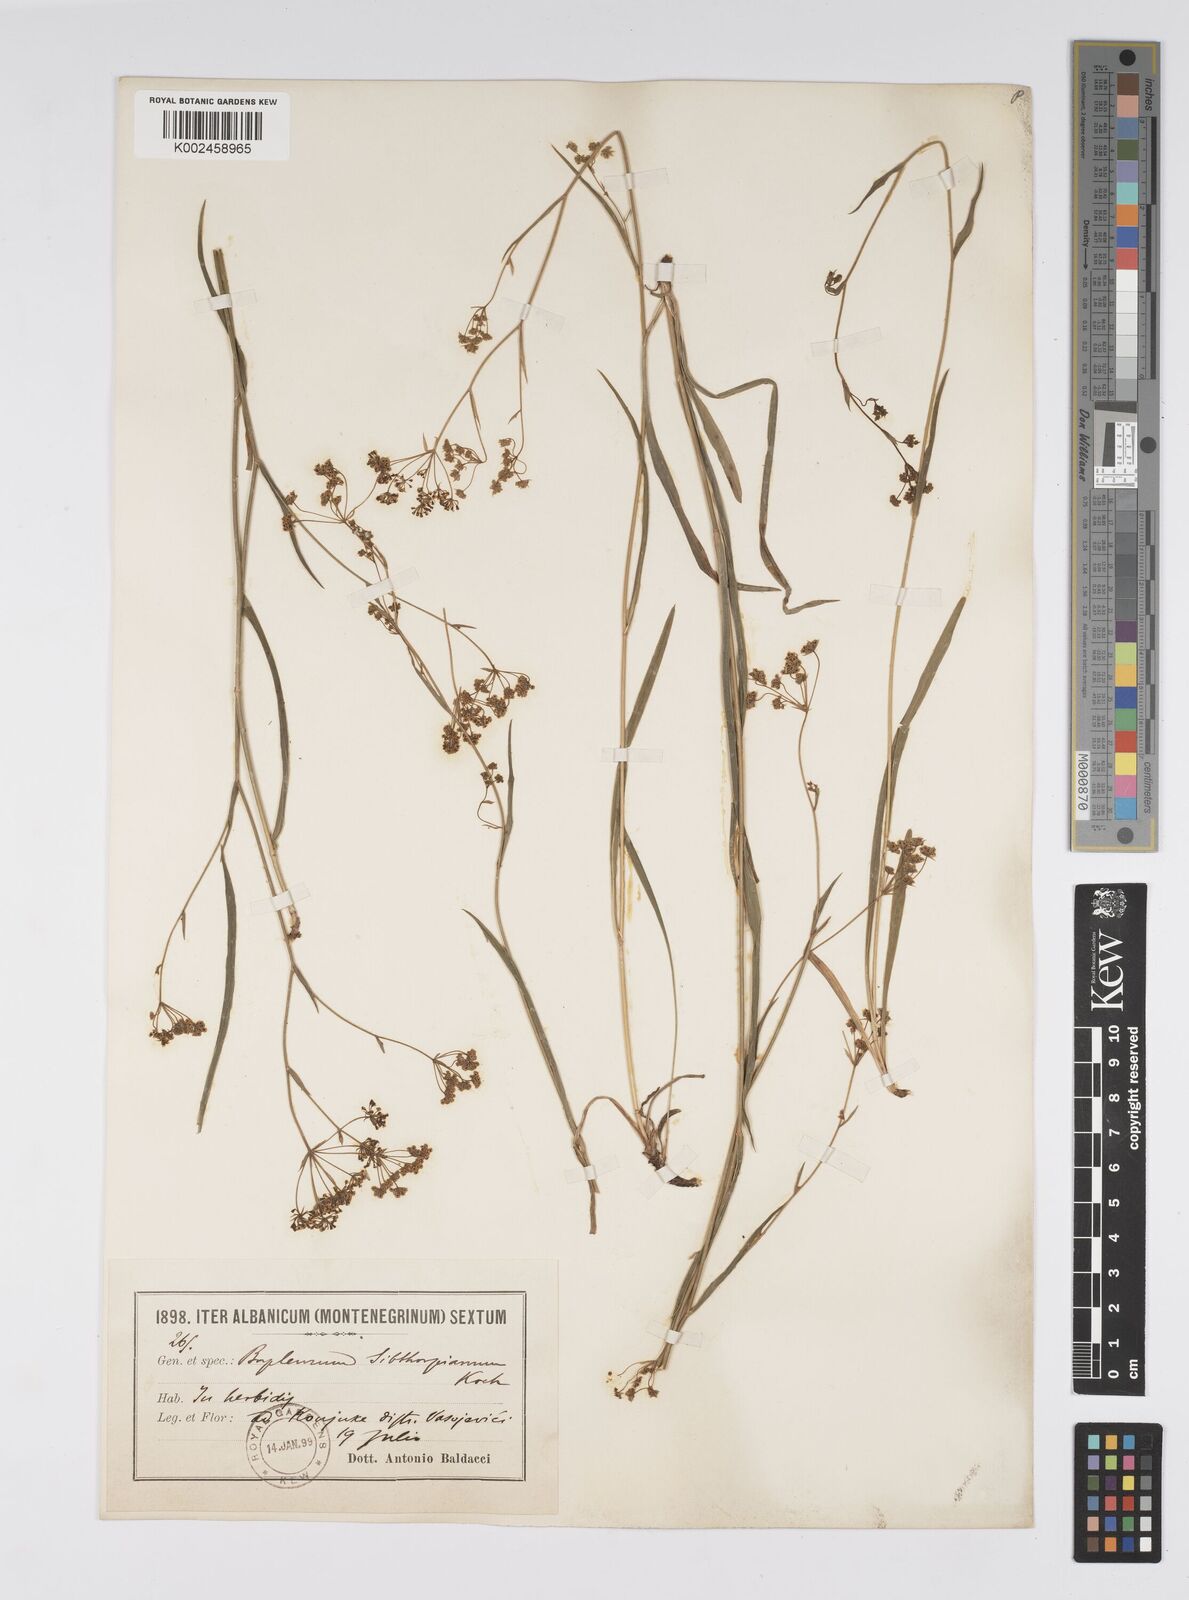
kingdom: Plantae
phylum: Tracheophyta
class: Magnoliopsida
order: Apiales
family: Apiaceae
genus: Bupleurum
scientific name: Bupleurum falcatum
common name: Sickle-leaved hare's-ear
